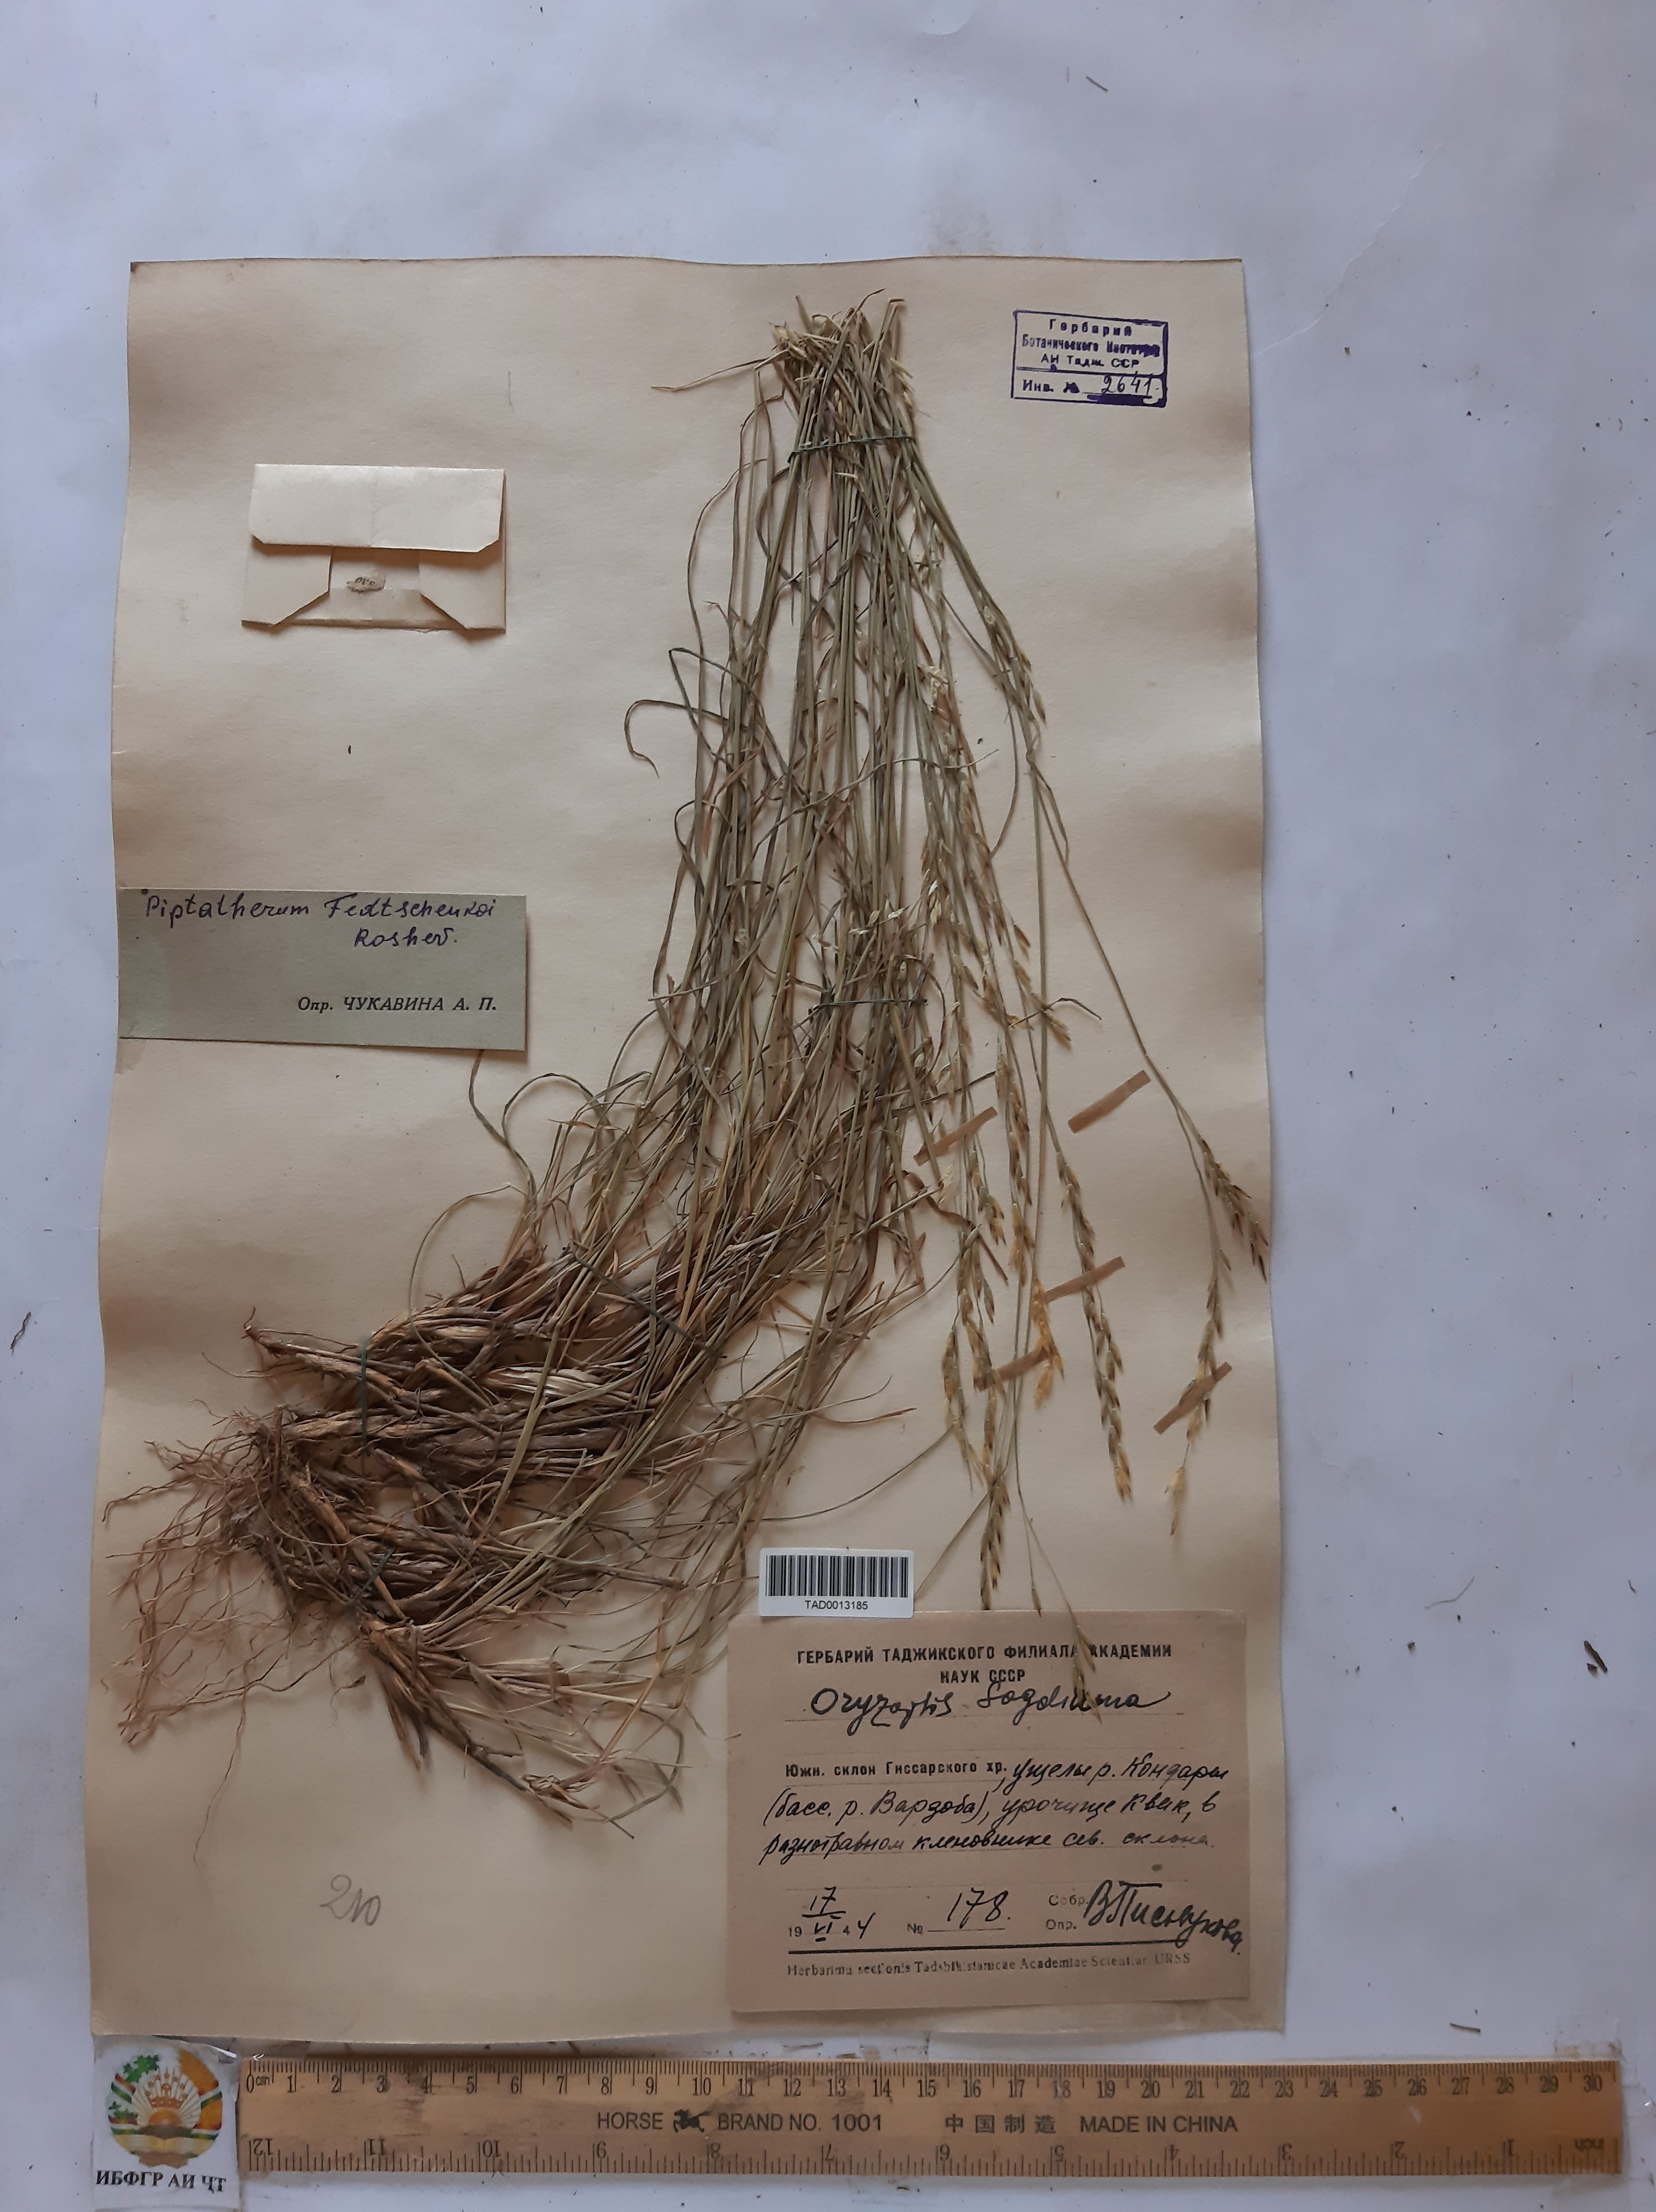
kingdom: Plantae
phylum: Tracheophyta
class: Liliopsida
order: Poales
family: Poaceae
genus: Piptatherum
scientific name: Piptatherum sogdianum
